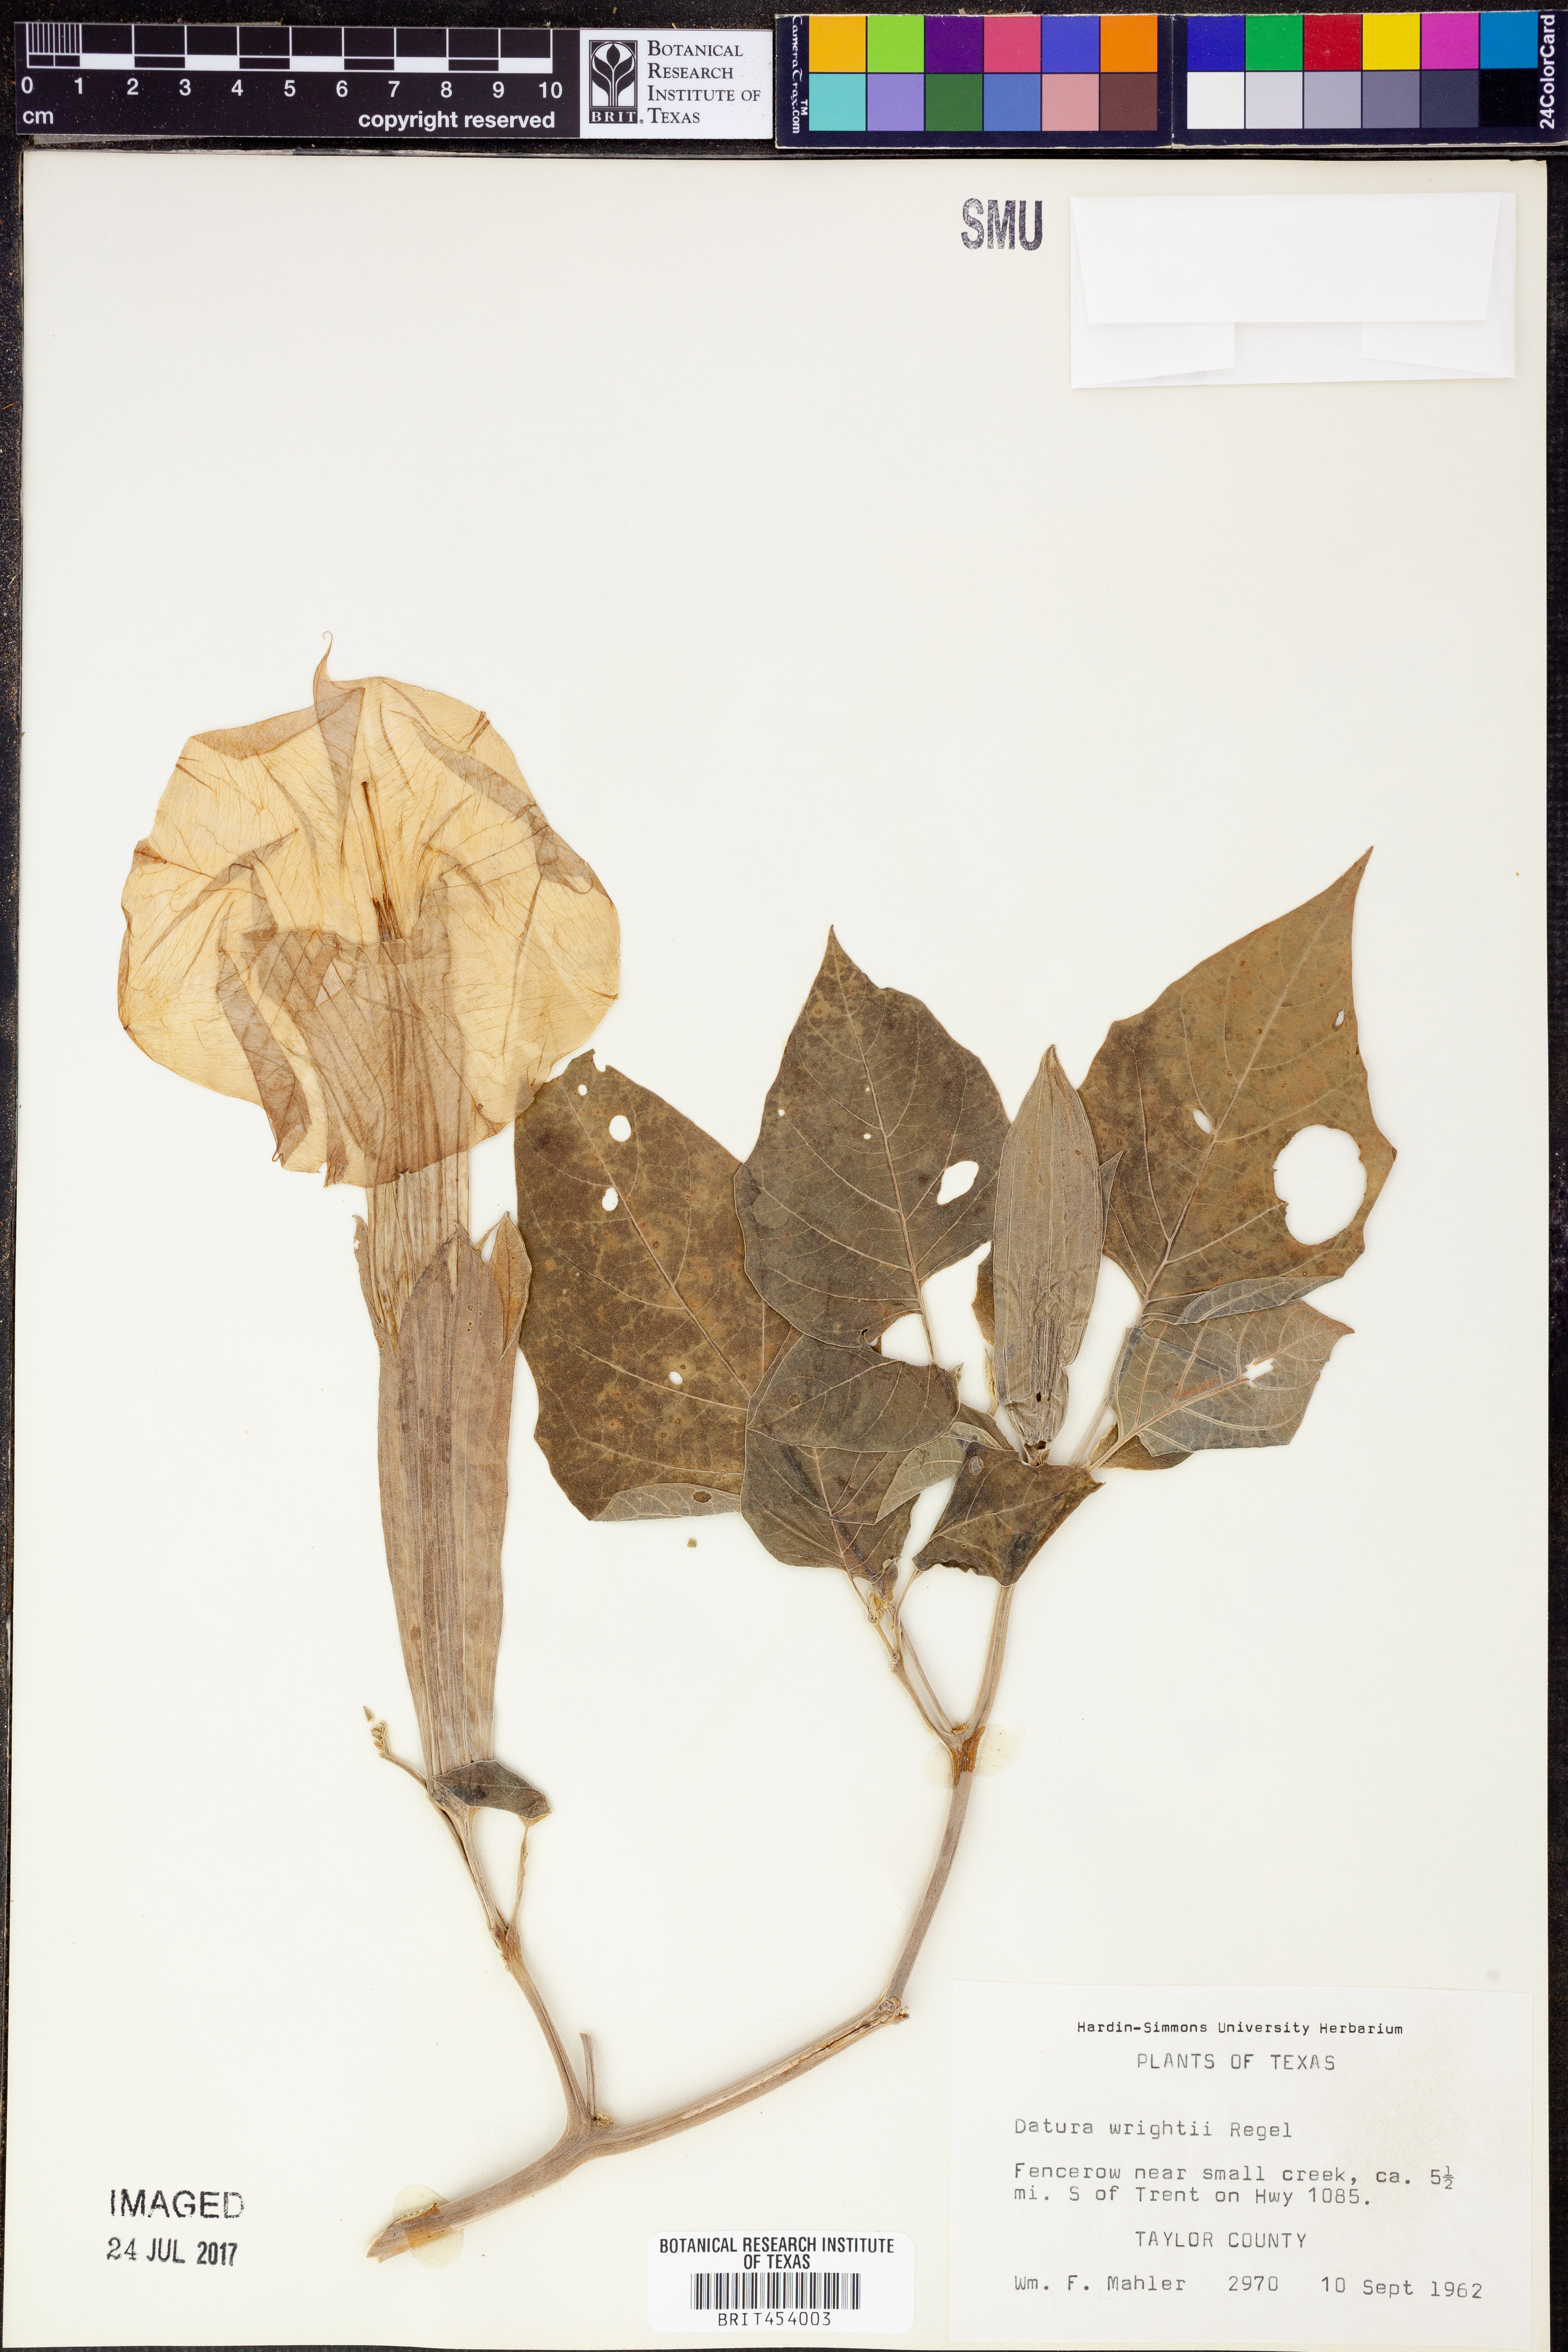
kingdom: Plantae
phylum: Tracheophyta
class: Magnoliopsida
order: Solanales
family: Solanaceae
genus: Datura
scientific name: Datura wrightii
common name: Sacred thorn-apple
